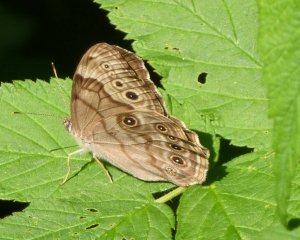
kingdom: Animalia
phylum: Arthropoda
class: Insecta
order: Lepidoptera
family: Nymphalidae
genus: Lethe
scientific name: Lethe anthedon
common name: Northern Pearly-Eye
